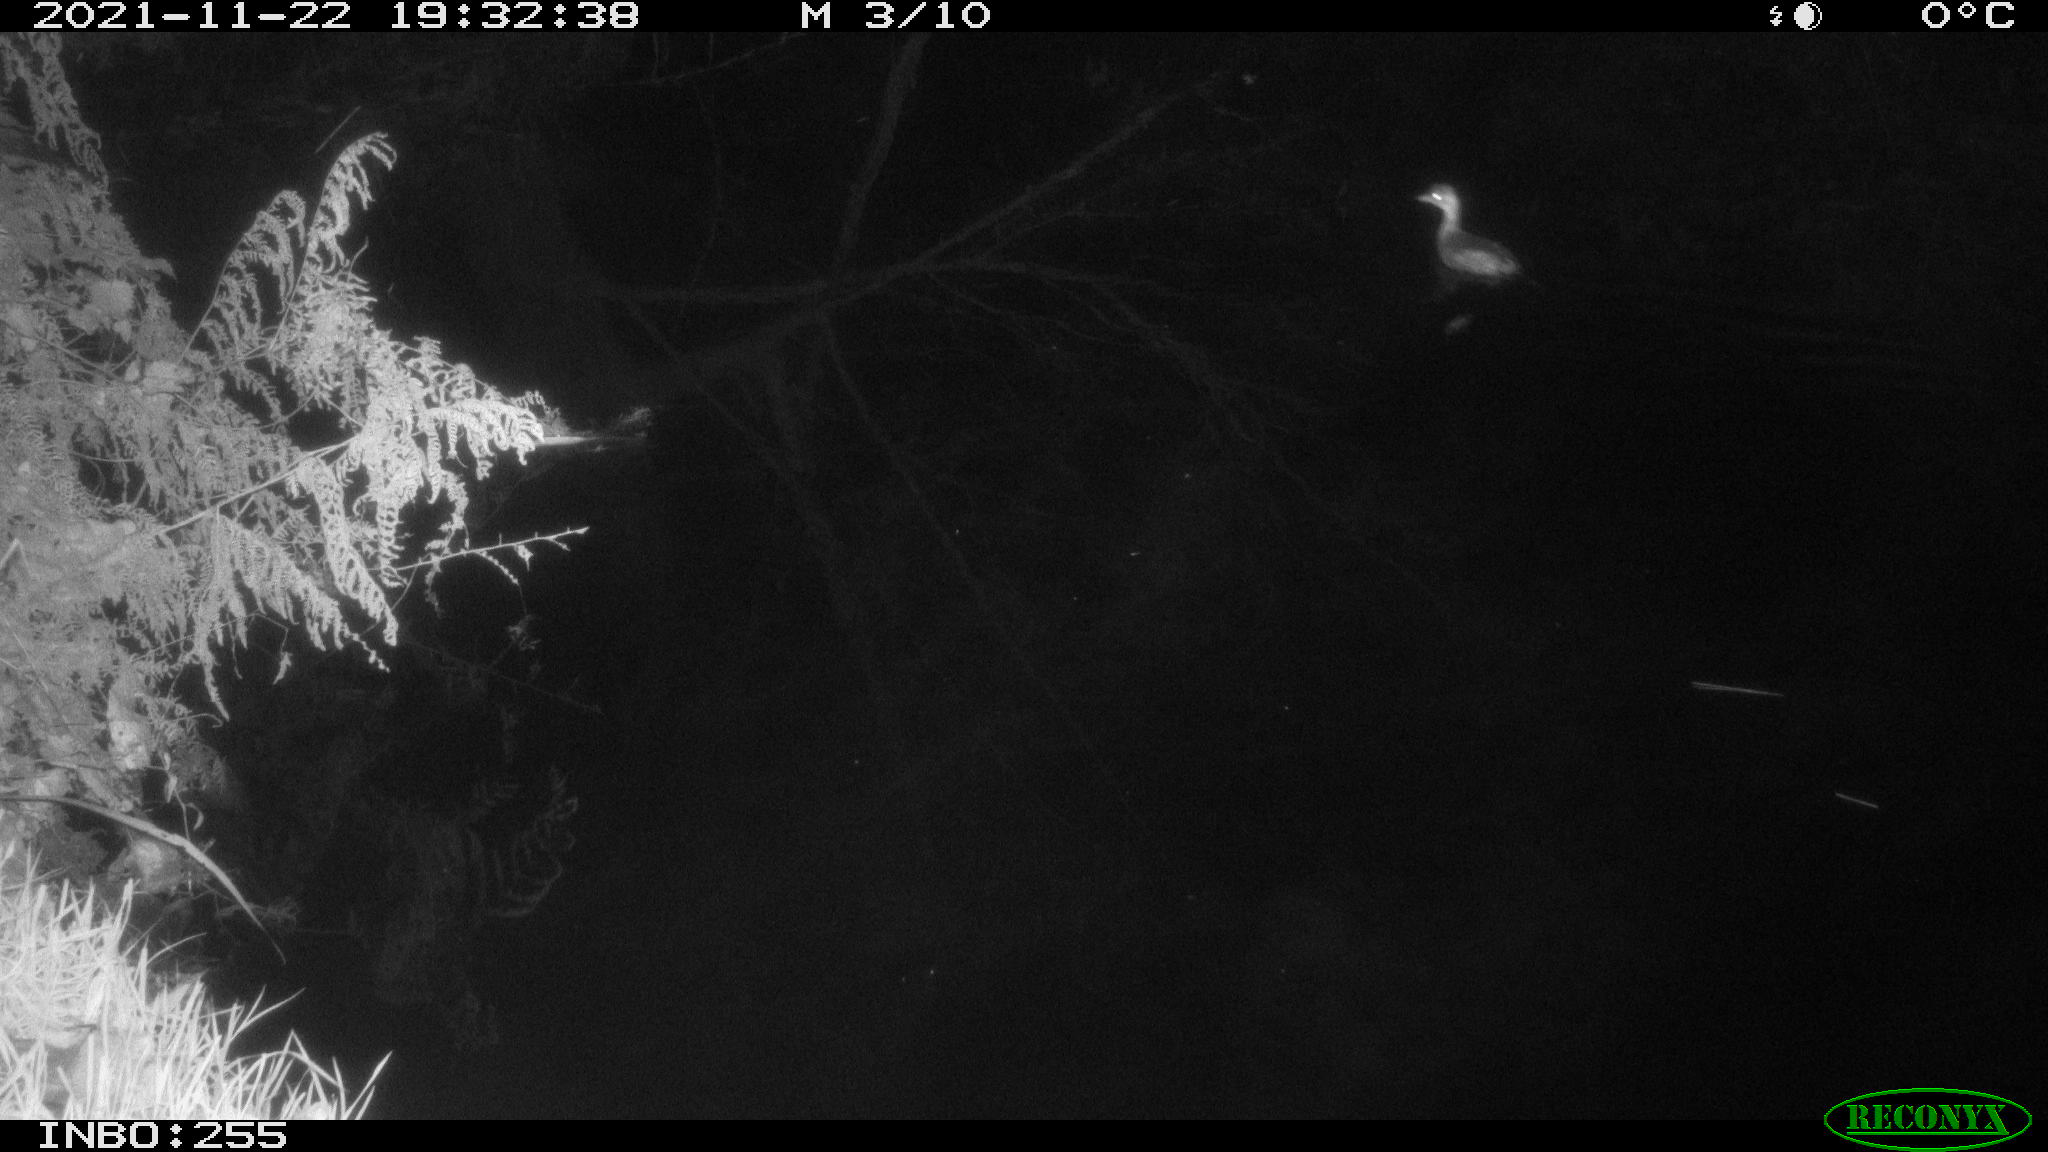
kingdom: Animalia
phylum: Chordata
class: Aves
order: Podicipediformes
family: Podicipedidae
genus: Tachybaptus
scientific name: Tachybaptus ruficollis
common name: Little grebe
